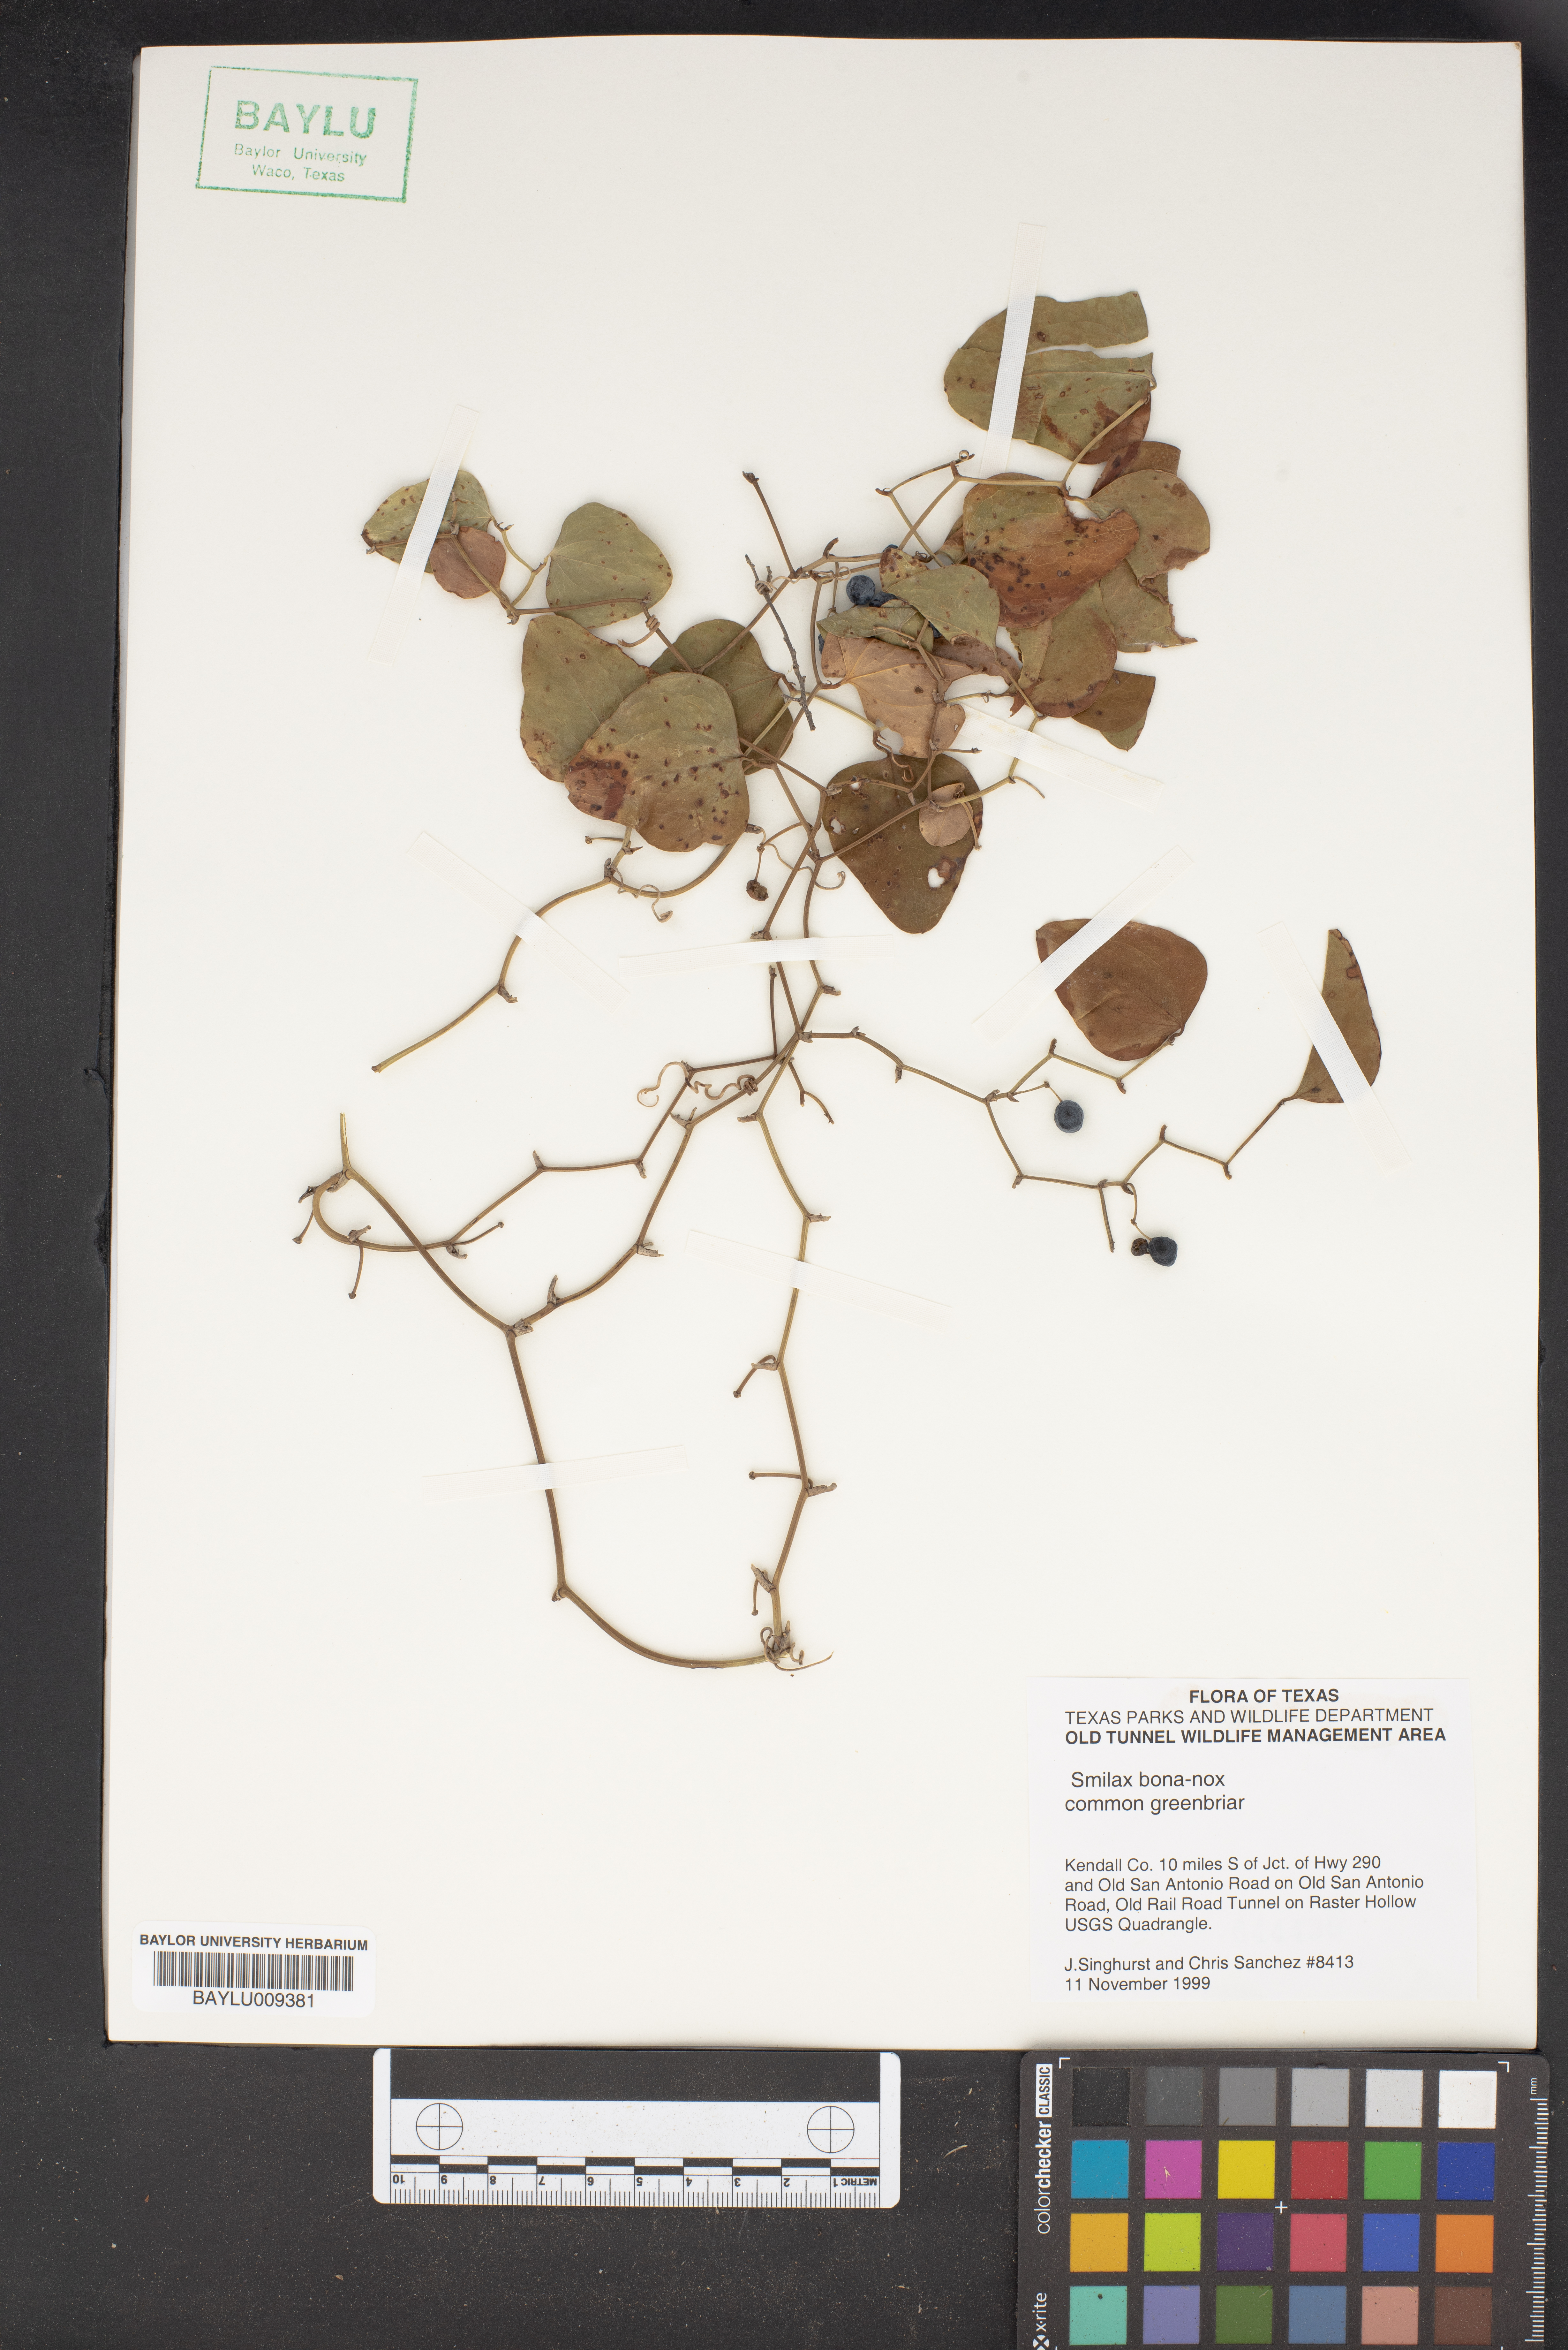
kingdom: Plantae
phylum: Tracheophyta
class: Liliopsida
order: Liliales
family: Smilacaceae
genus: Smilax
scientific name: Smilax bona-nox
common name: Catbrier
